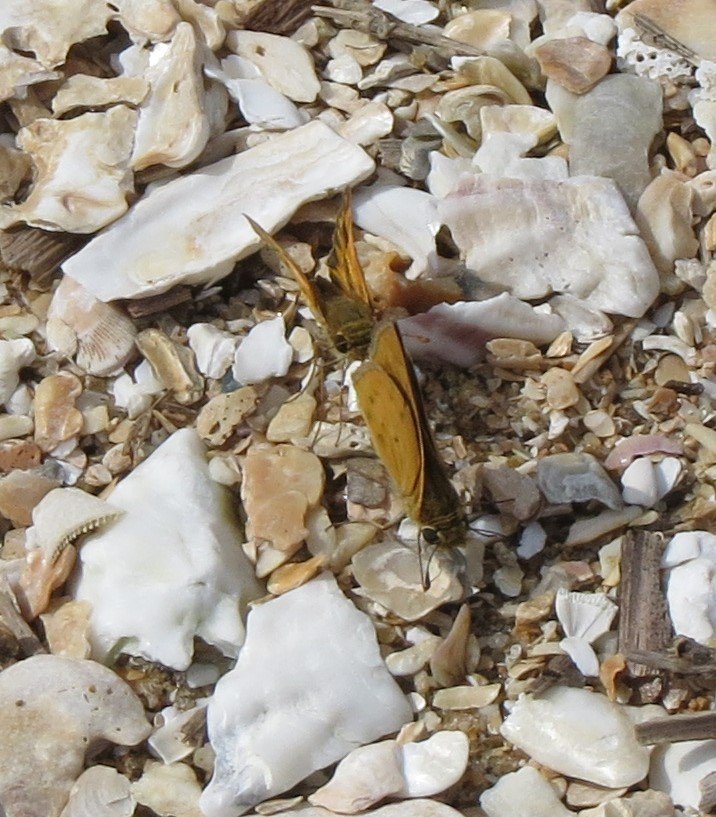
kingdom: Animalia
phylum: Arthropoda
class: Insecta
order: Lepidoptera
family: Hesperiidae
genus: Hylephila
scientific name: Hylephila phyleus
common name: Fiery Skipper
